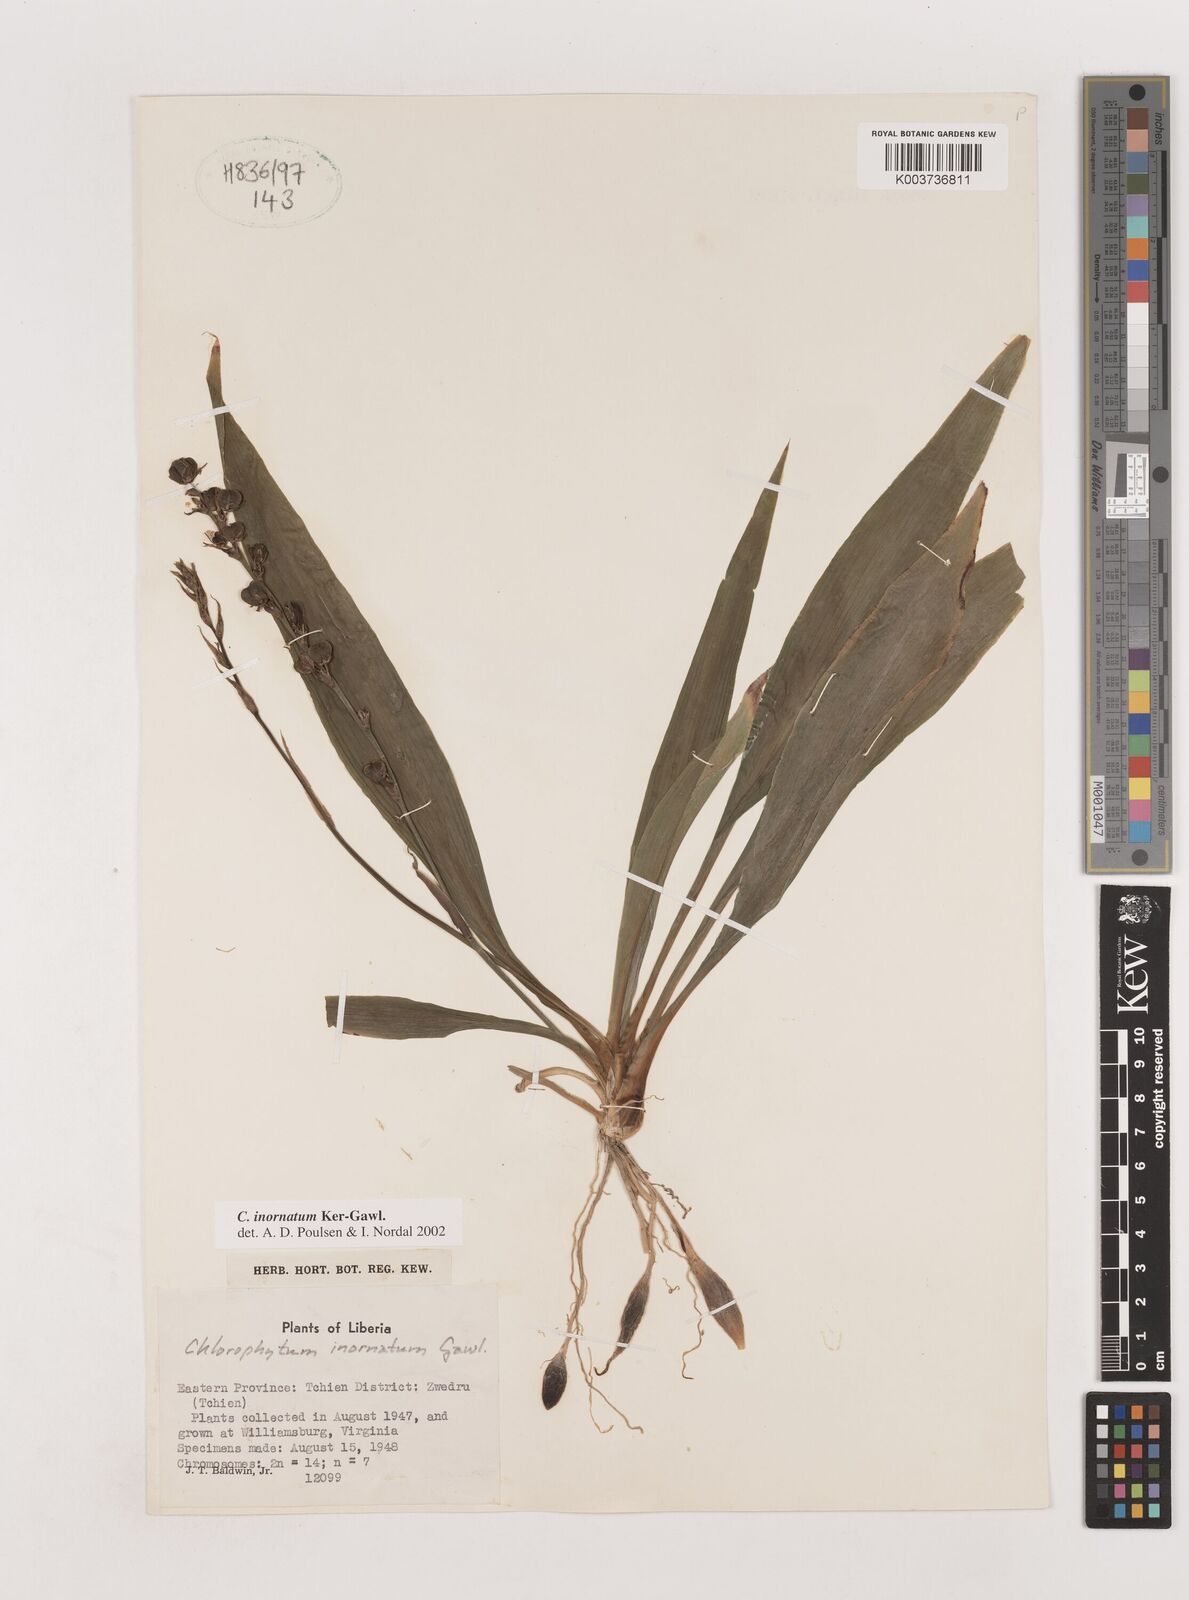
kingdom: Plantae
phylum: Tracheophyta
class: Liliopsida
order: Asparagales
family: Asparagaceae
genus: Chlorophytum
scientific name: Chlorophytum inornatum
